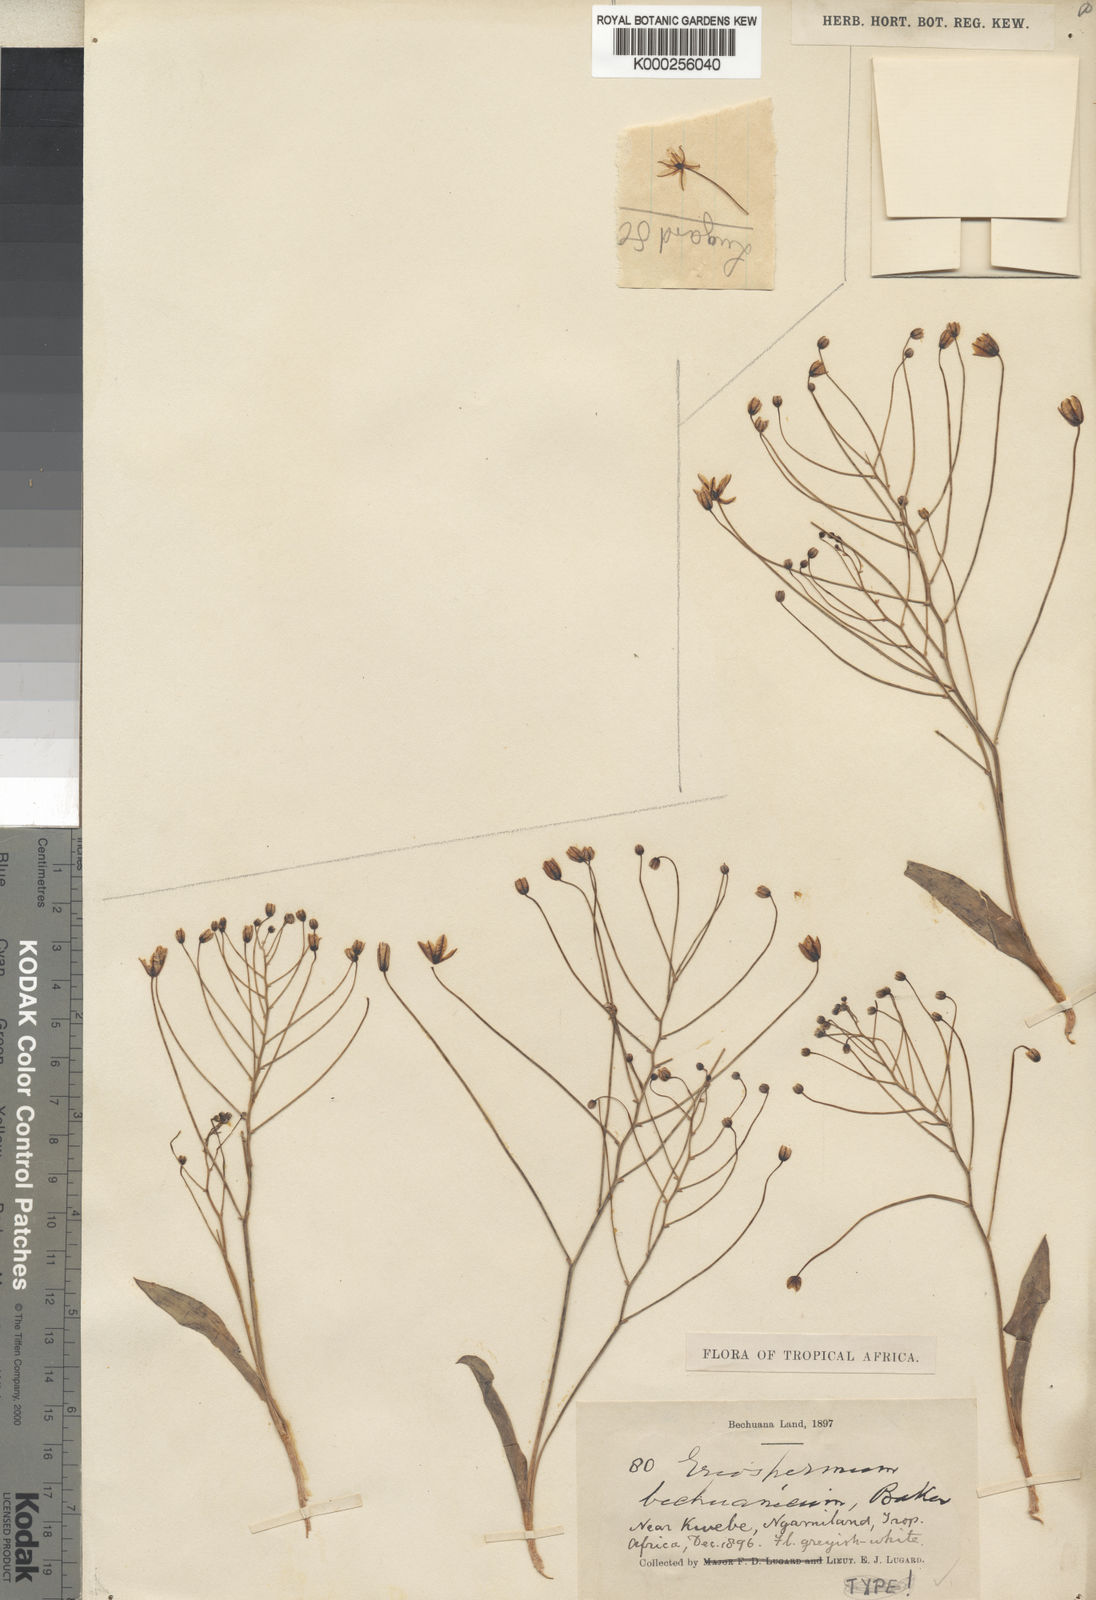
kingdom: Plantae
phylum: Tracheophyta
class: Liliopsida
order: Asparagales
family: Asparagaceae
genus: Eriospermum
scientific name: Eriospermum bakerianum
